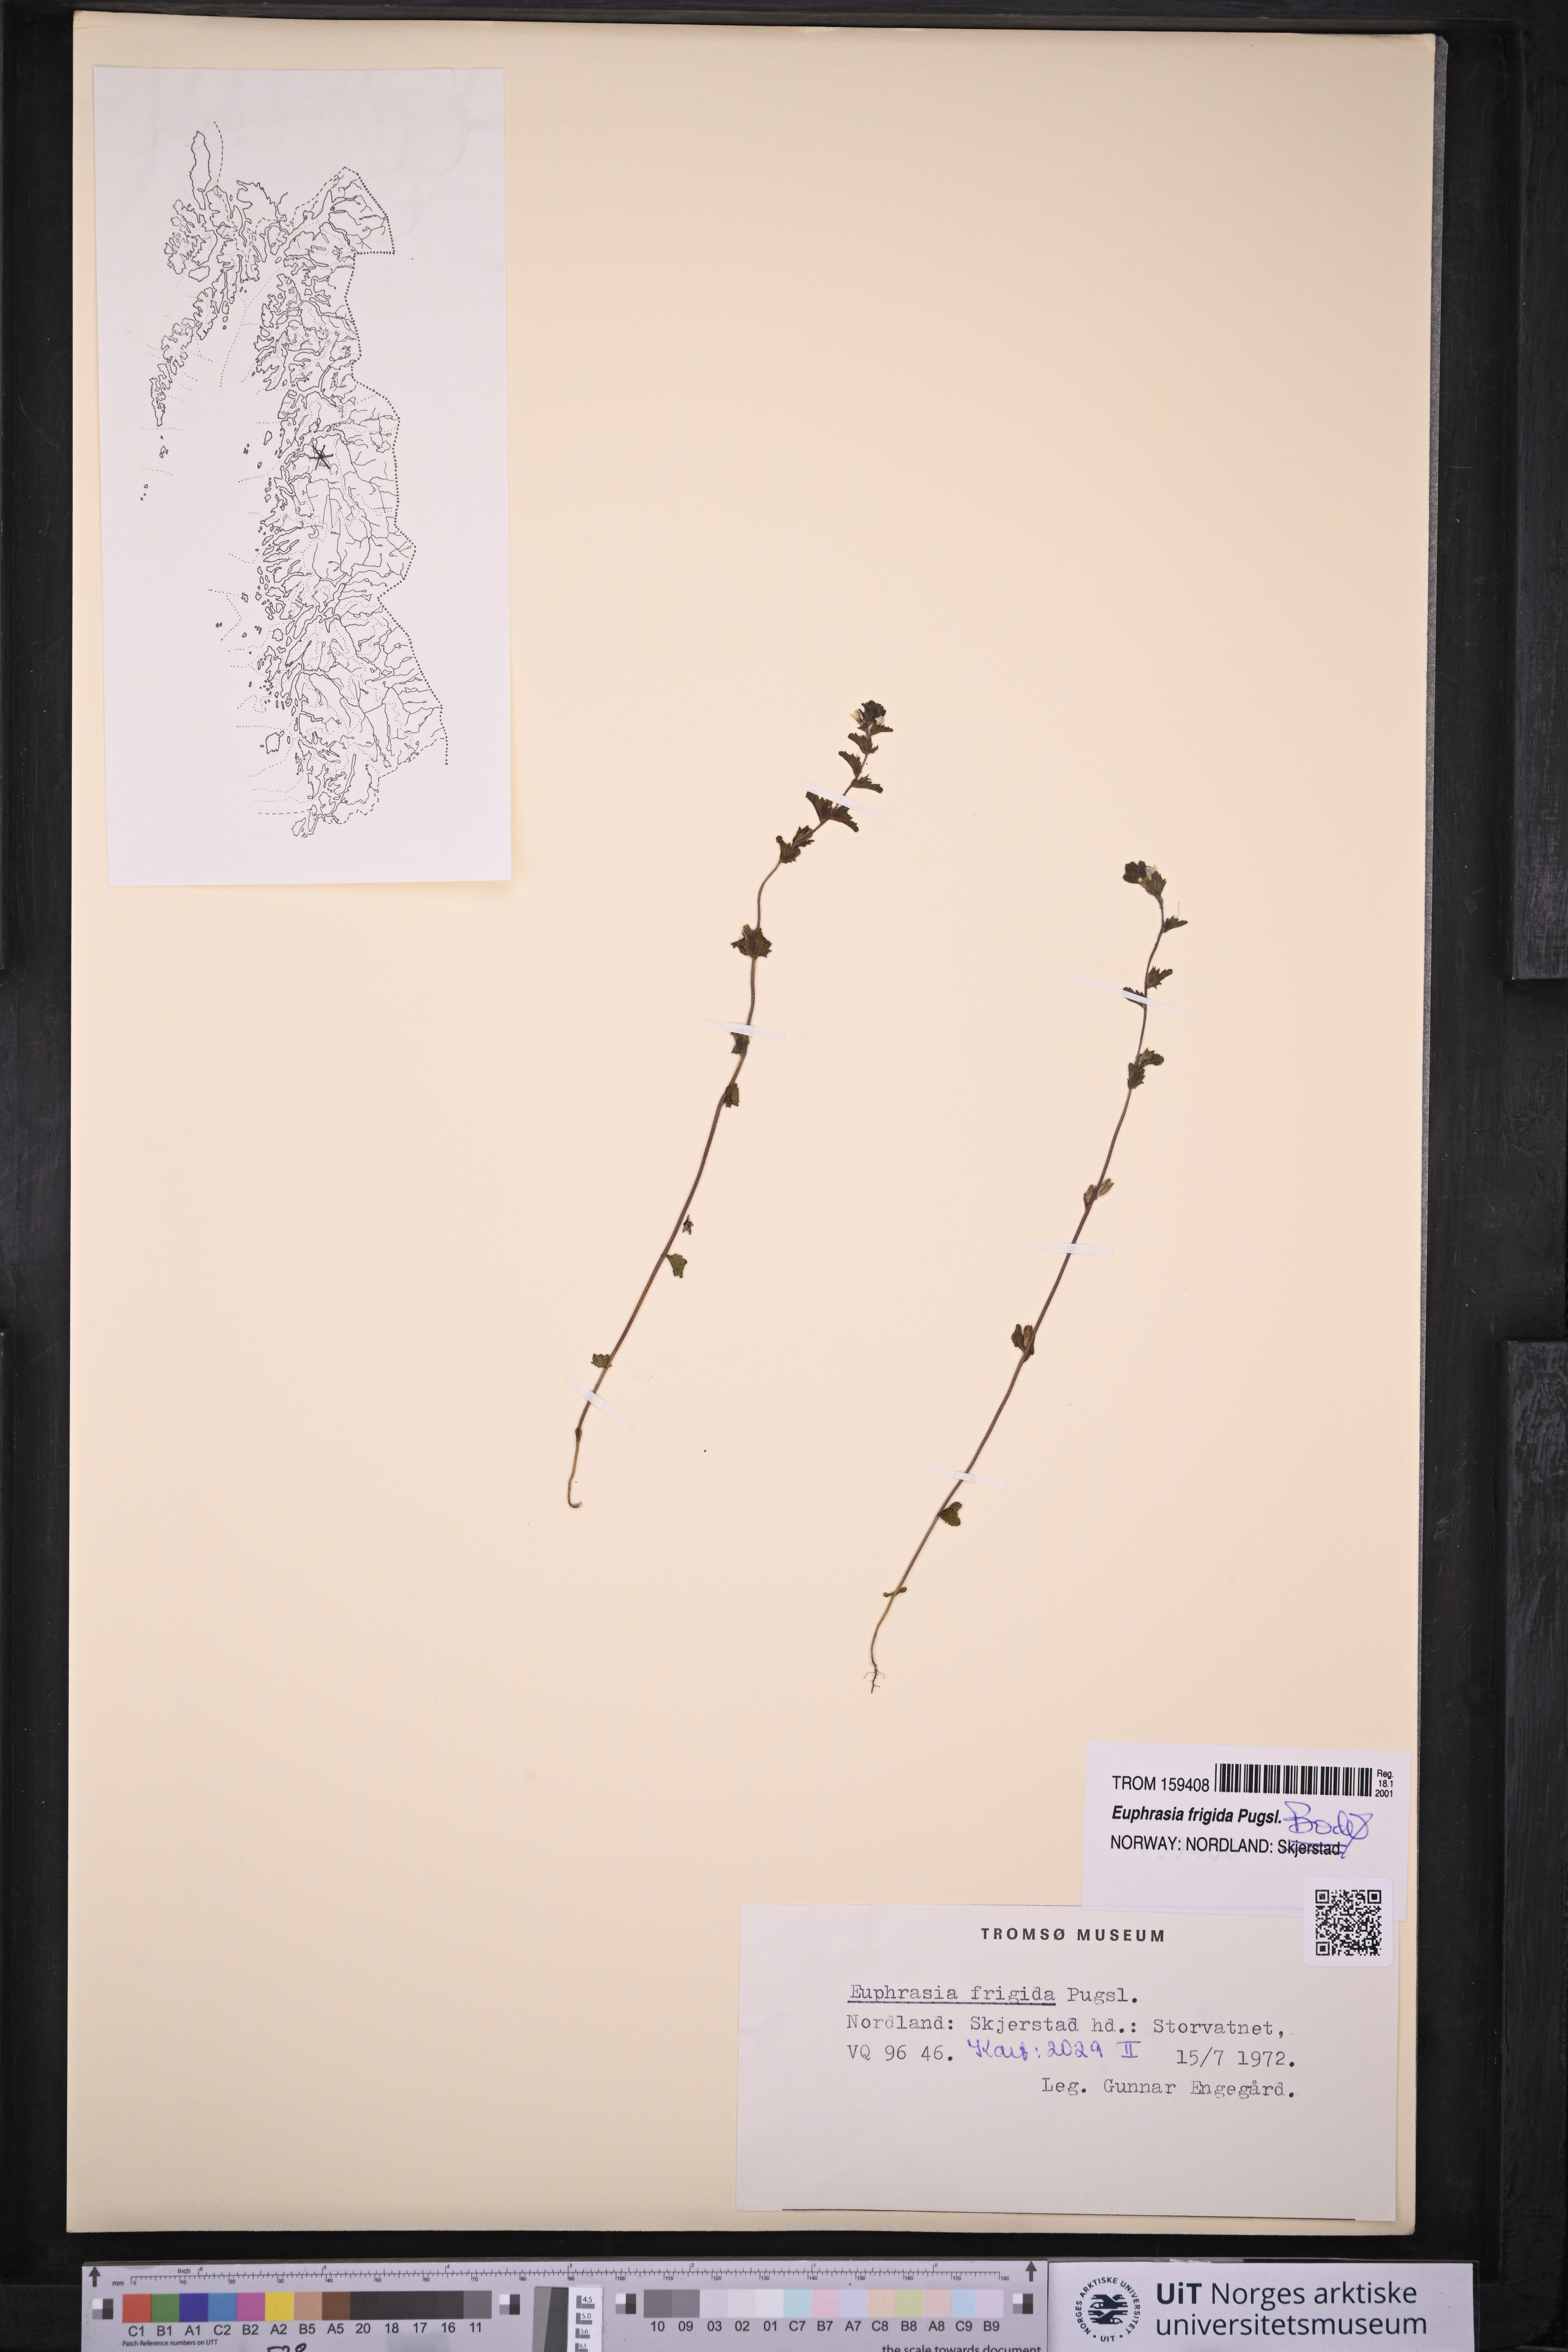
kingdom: Plantae
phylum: Tracheophyta
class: Magnoliopsida
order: Lamiales
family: Orobanchaceae
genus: Euphrasia
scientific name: Euphrasia frigida
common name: An eyebright
